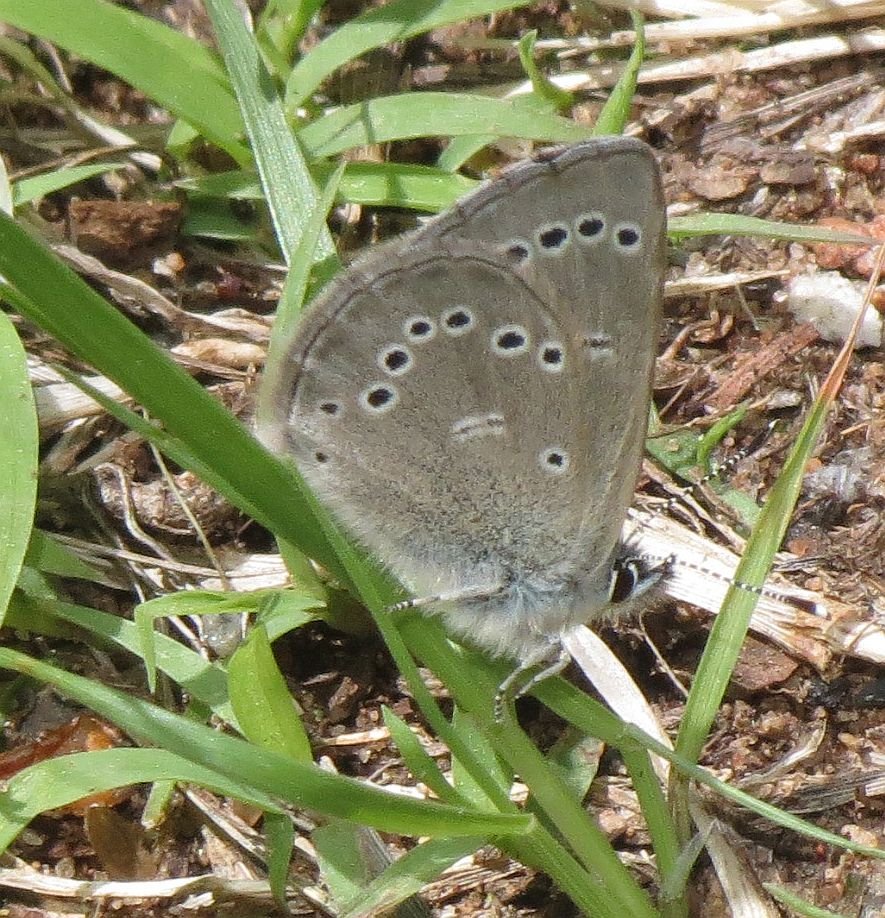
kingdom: Animalia
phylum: Arthropoda
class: Insecta
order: Lepidoptera
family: Lycaenidae
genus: Glaucopsyche
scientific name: Glaucopsyche lygdamus
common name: Silvery Blue
